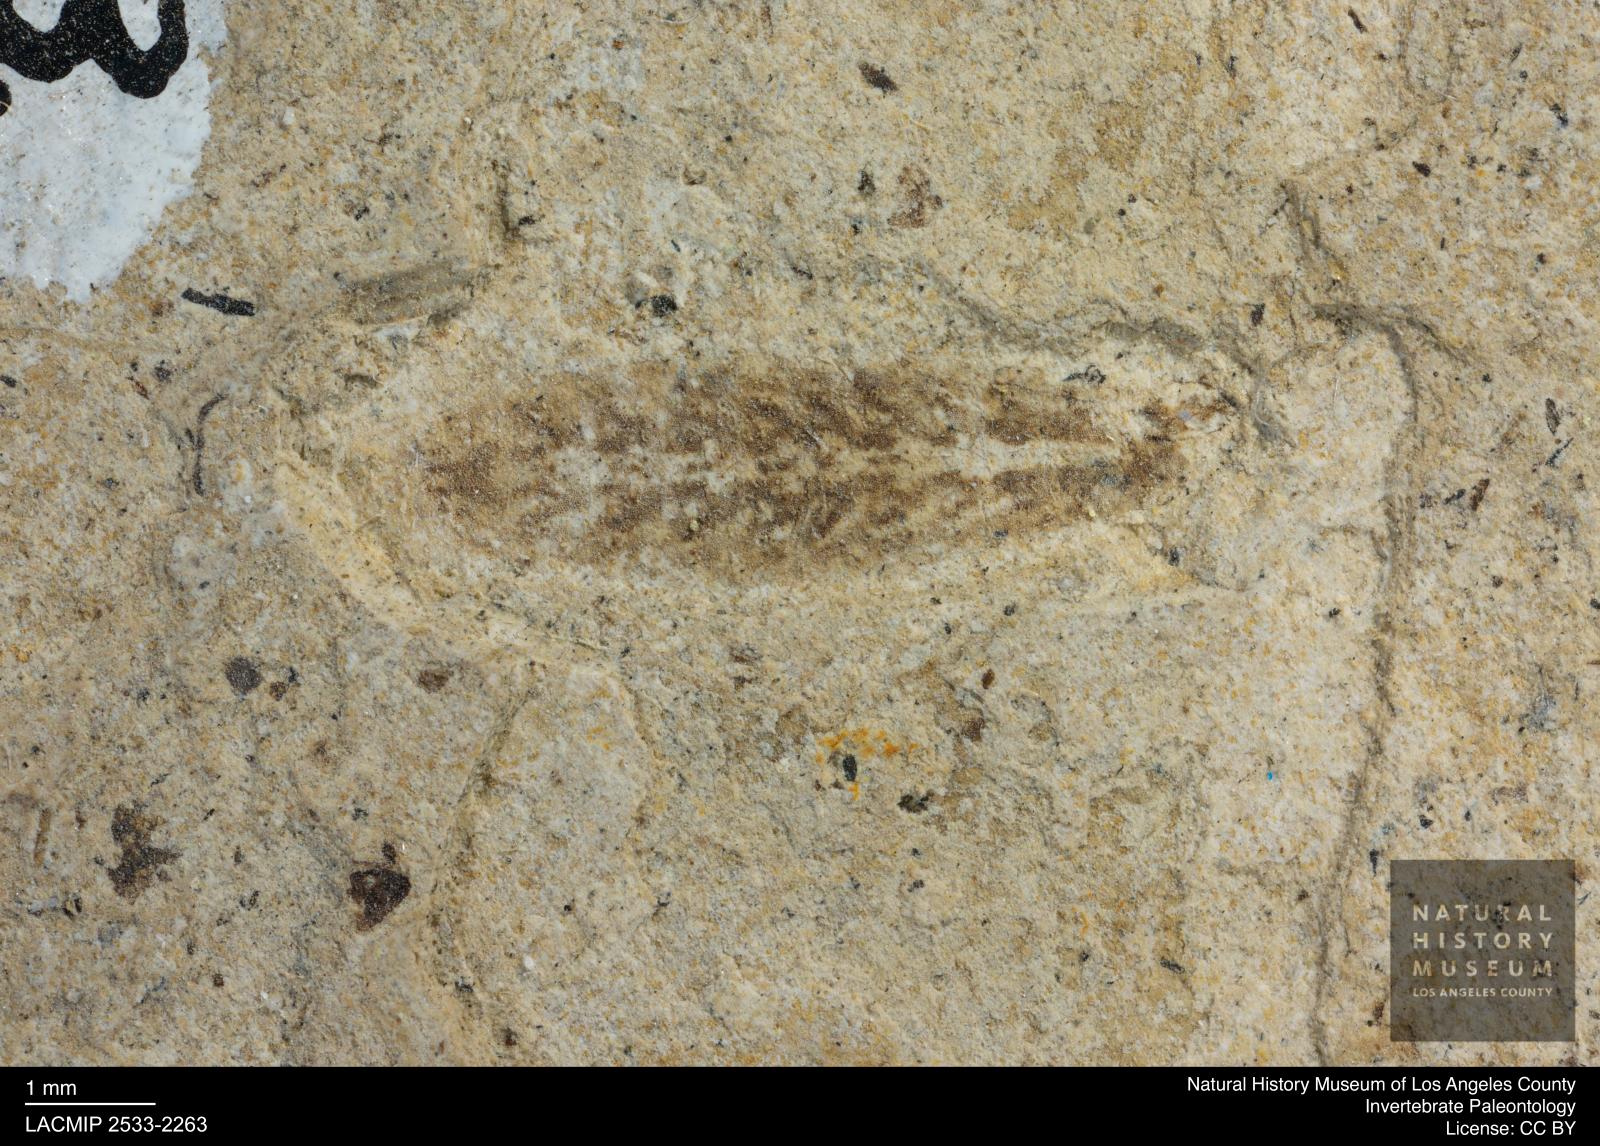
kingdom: Animalia
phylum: Arthropoda
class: Insecta
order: Diptera
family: Stratiomyidae
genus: Odontomyia
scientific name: Odontomyia
